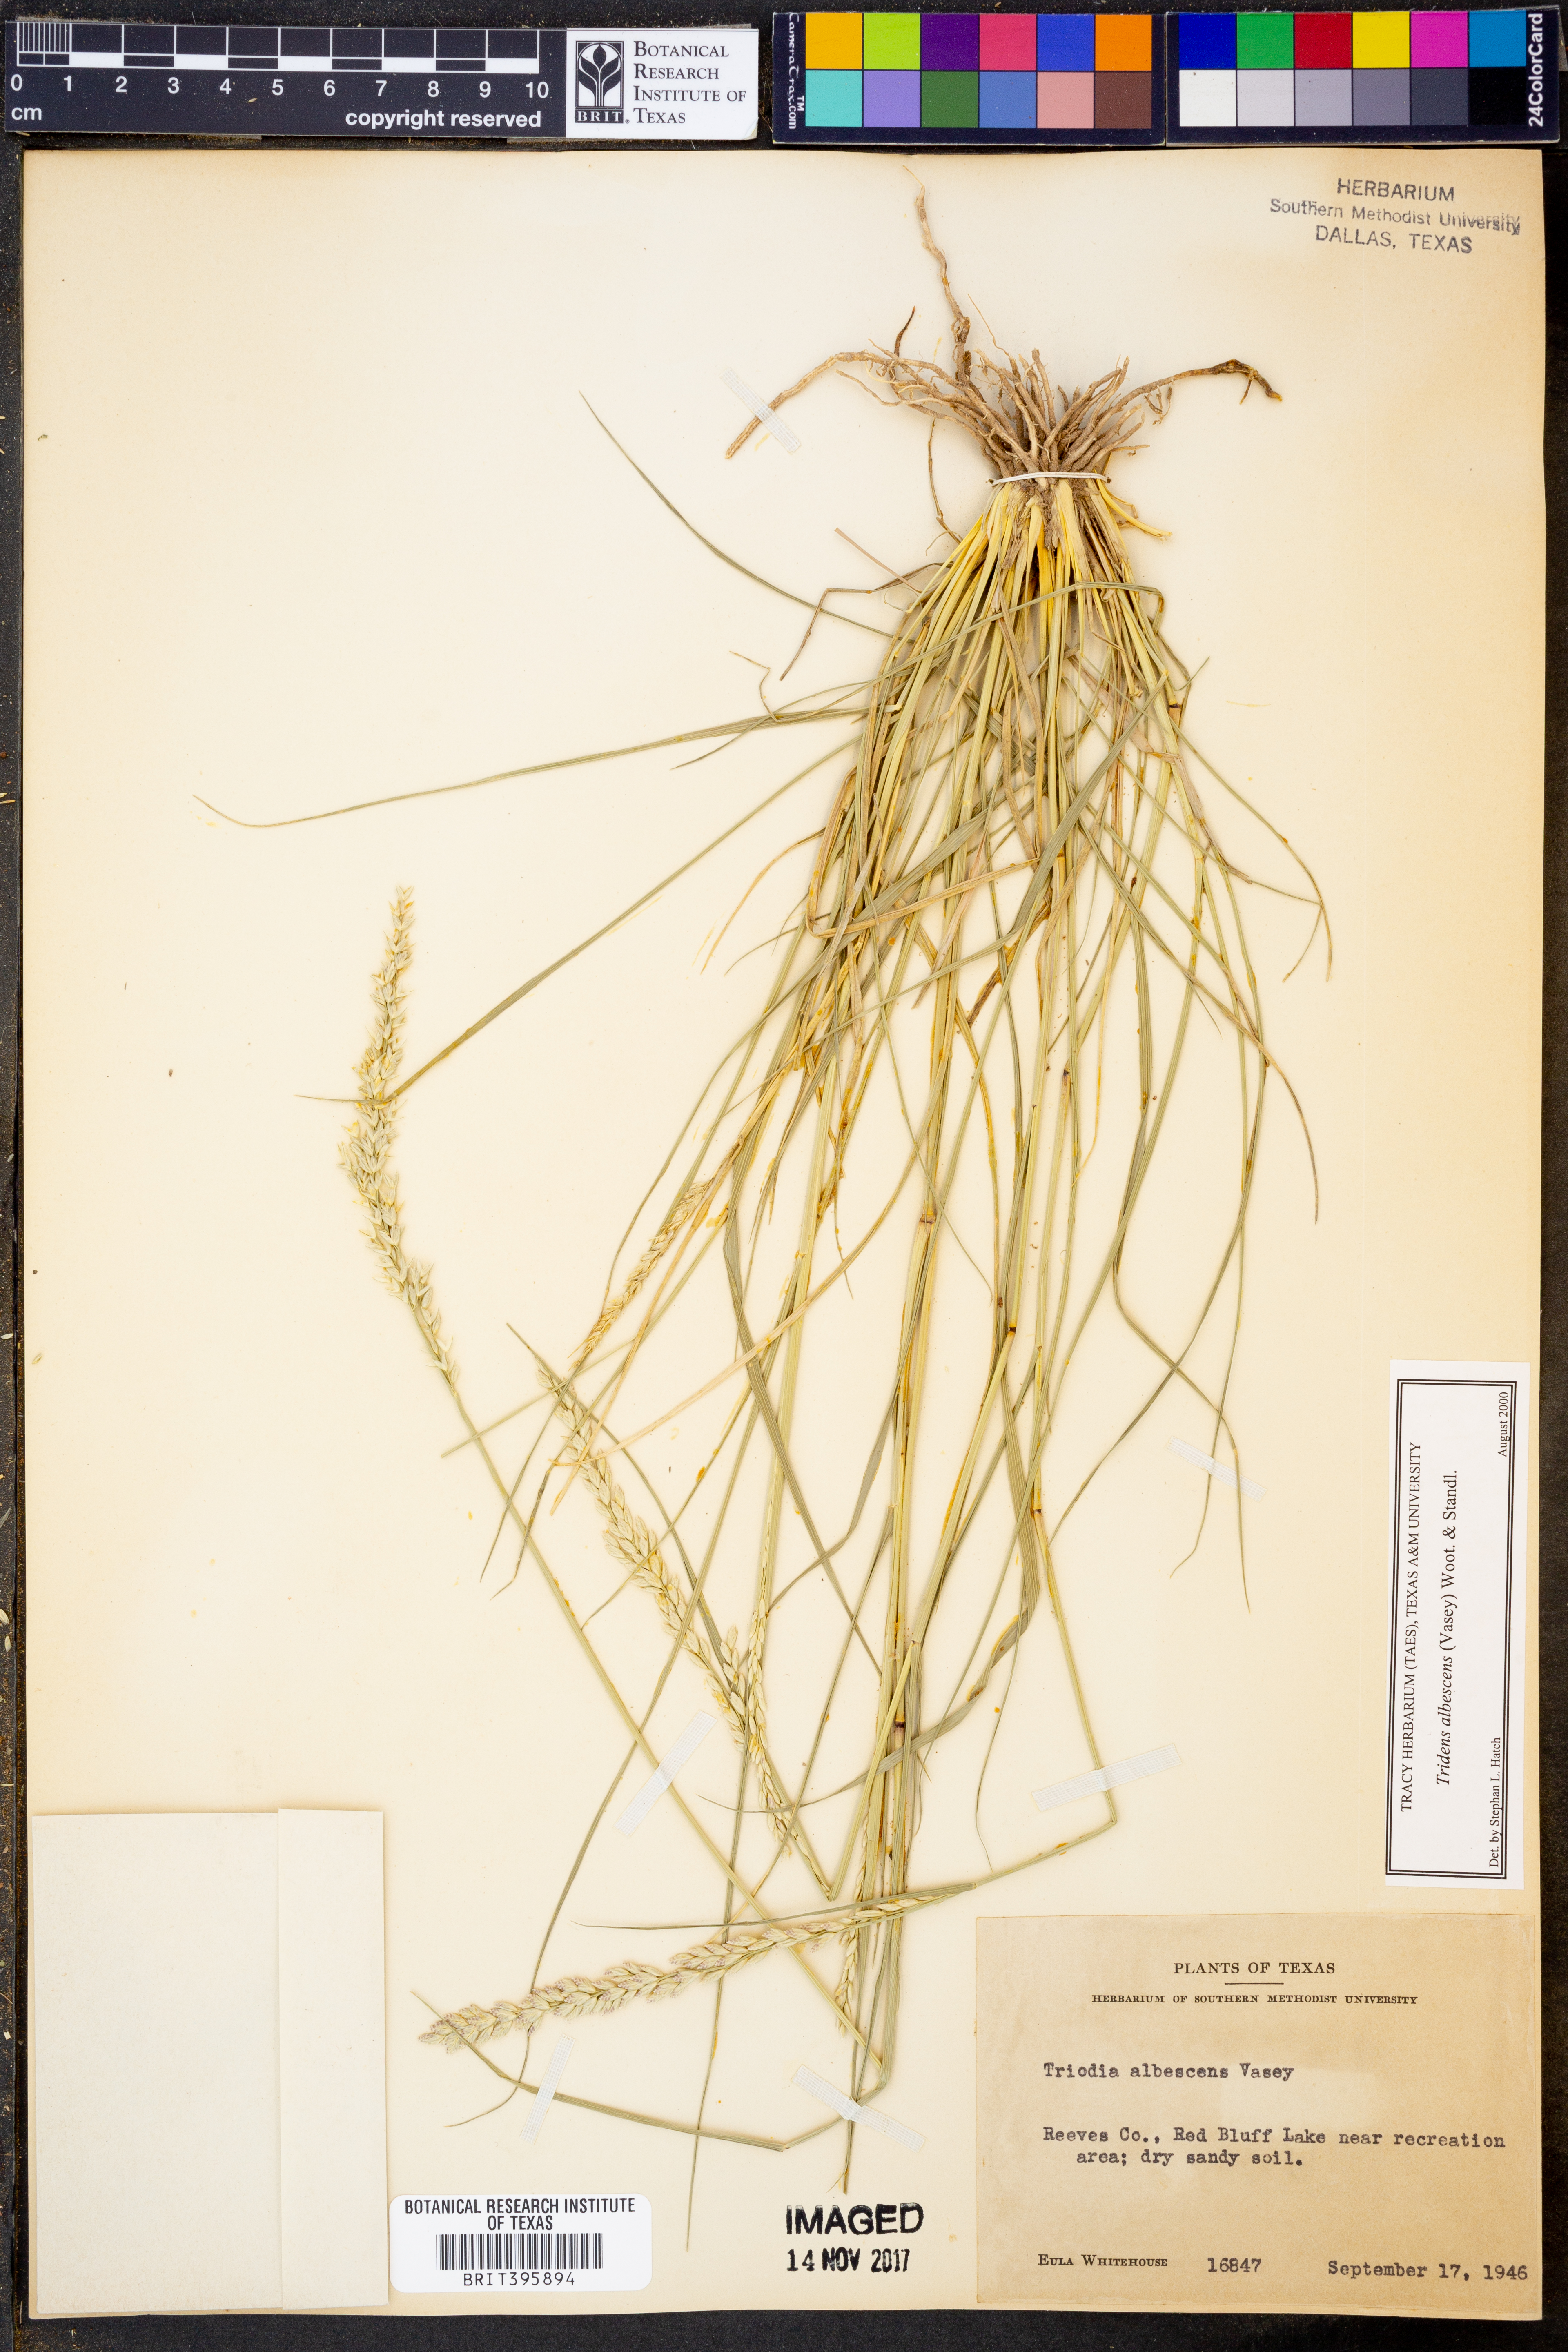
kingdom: Plantae
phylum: Tracheophyta
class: Liliopsida
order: Poales
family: Poaceae
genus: Tridens
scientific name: Tridens albescens
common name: White tridens
